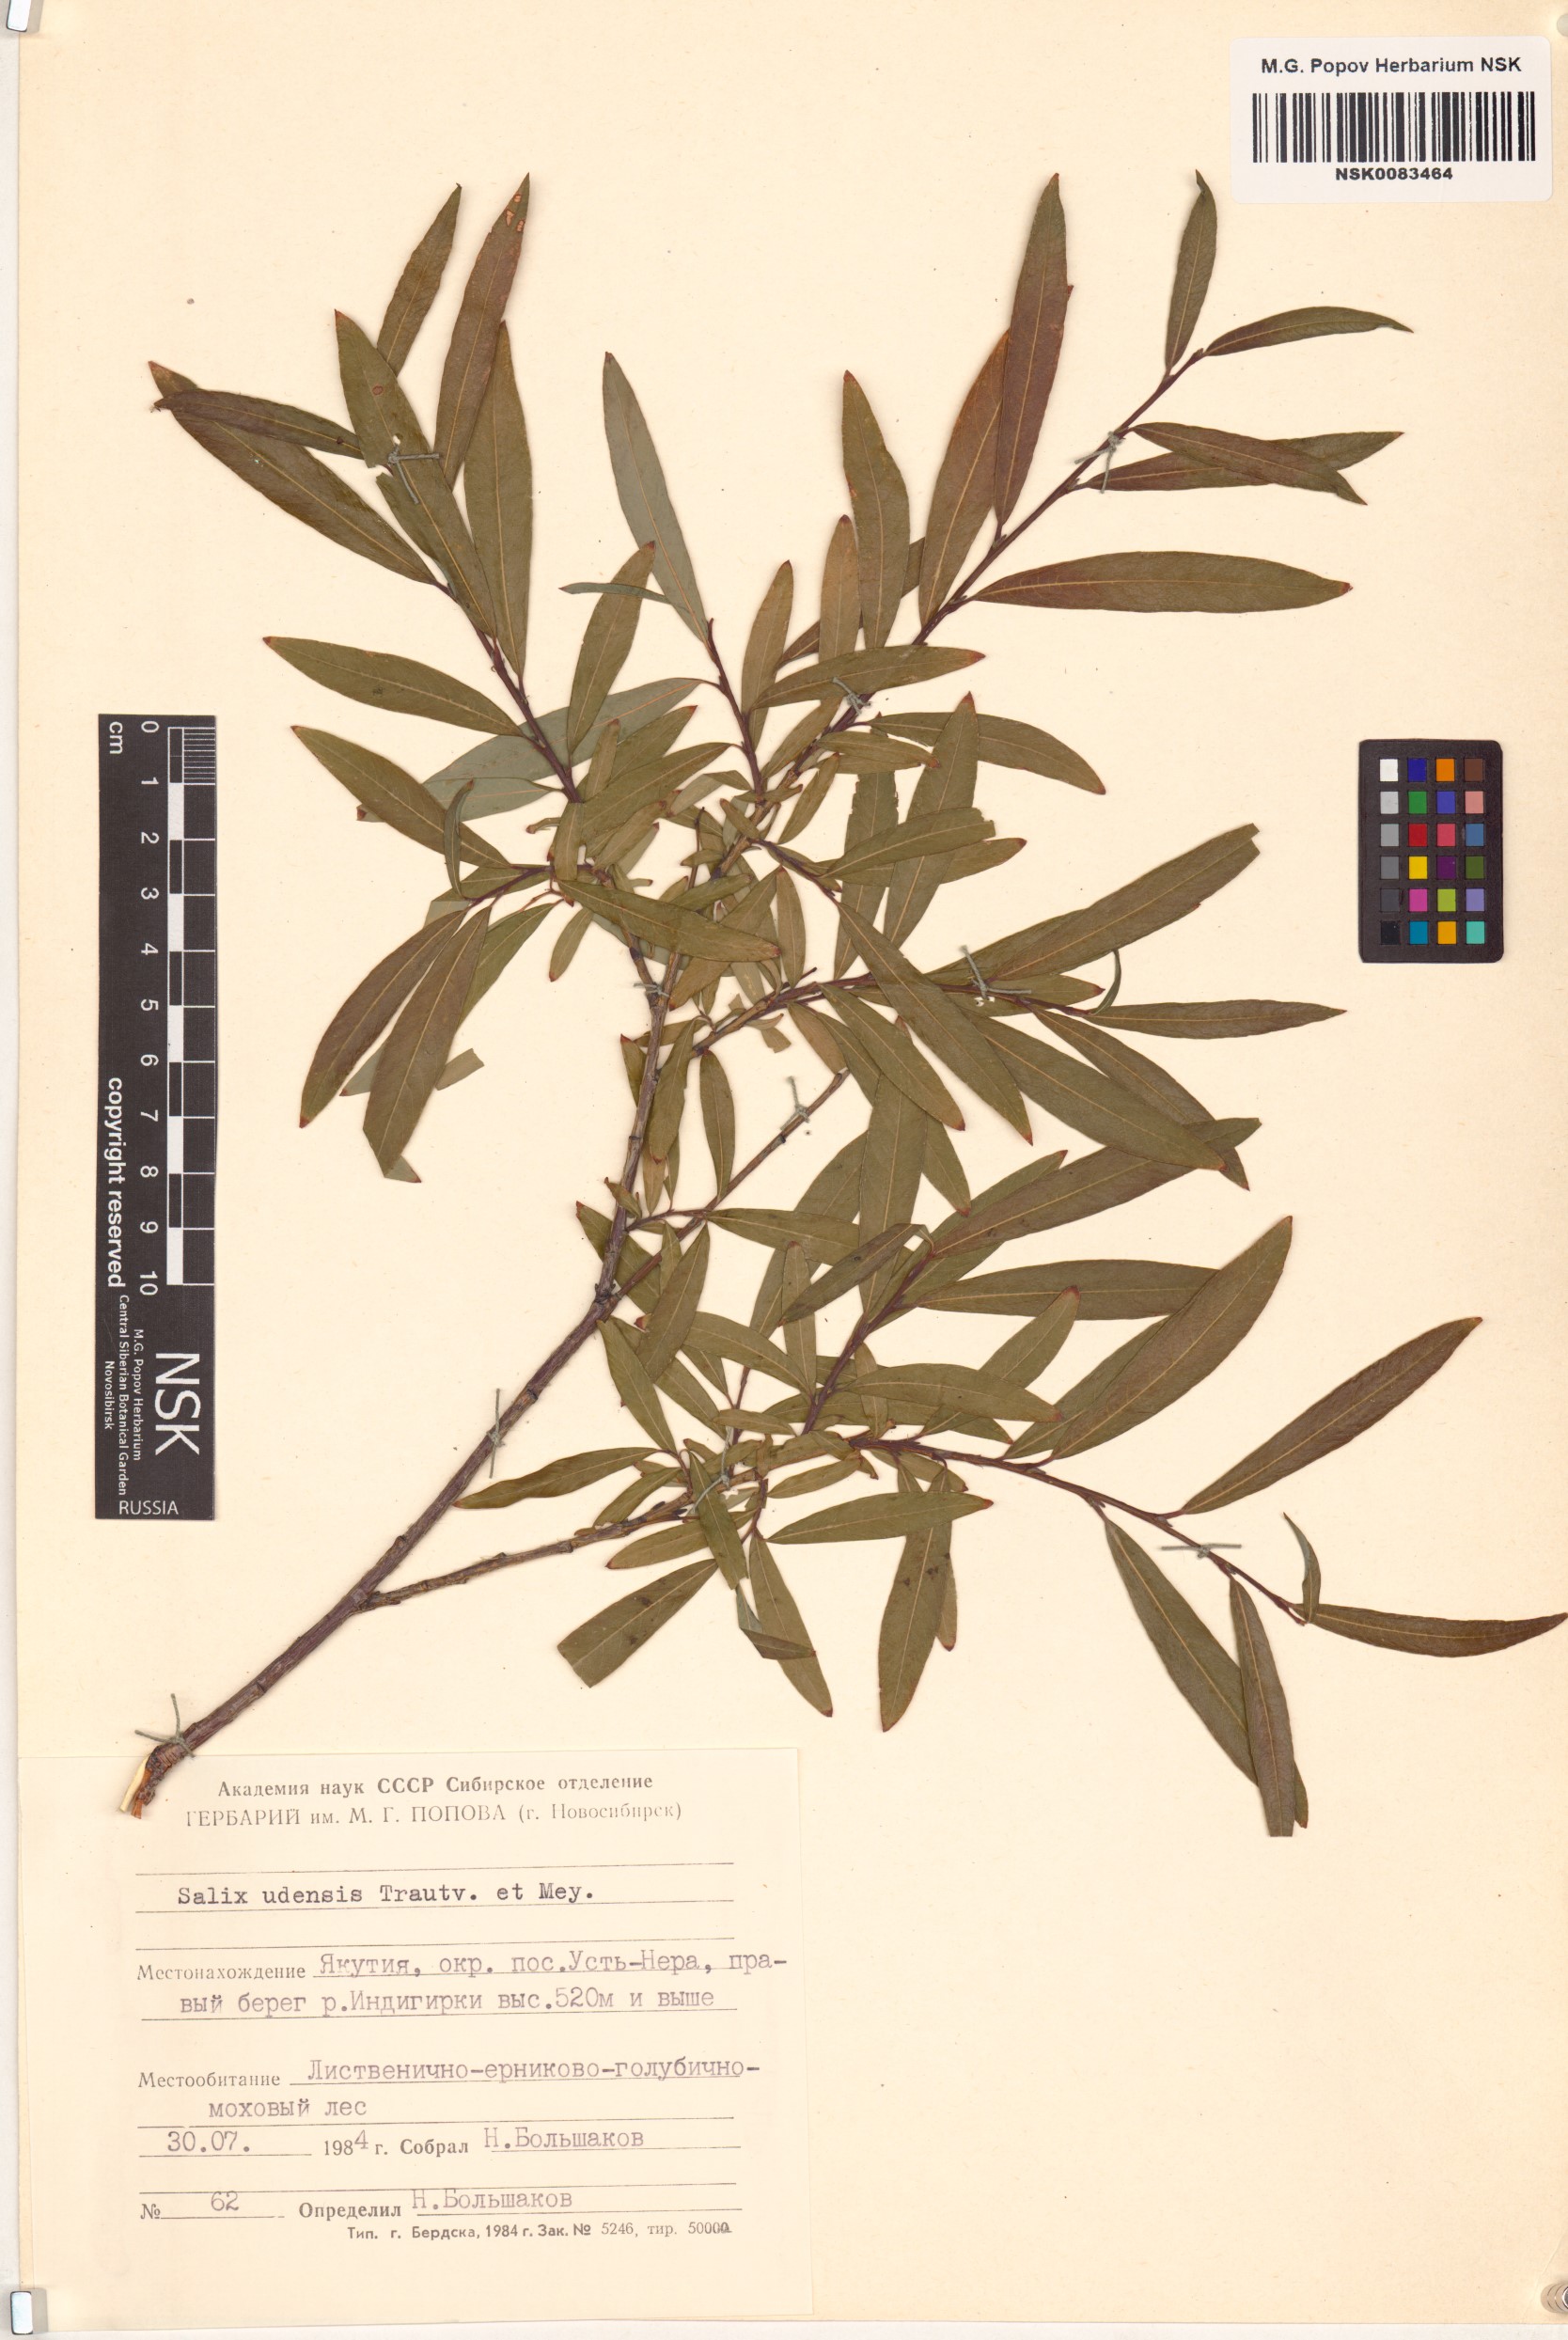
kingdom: Plantae
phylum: Tracheophyta
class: Magnoliopsida
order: Malpighiales
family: Salicaceae
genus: Salix
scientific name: Salix udensis
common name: Sachalin willow
